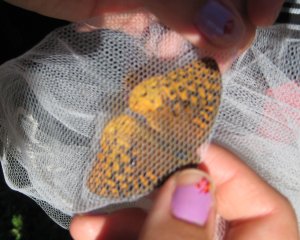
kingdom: Animalia
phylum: Arthropoda
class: Insecta
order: Lepidoptera
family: Nymphalidae
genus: Speyeria
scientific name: Speyeria cybele
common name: Great Spangled Fritillary
